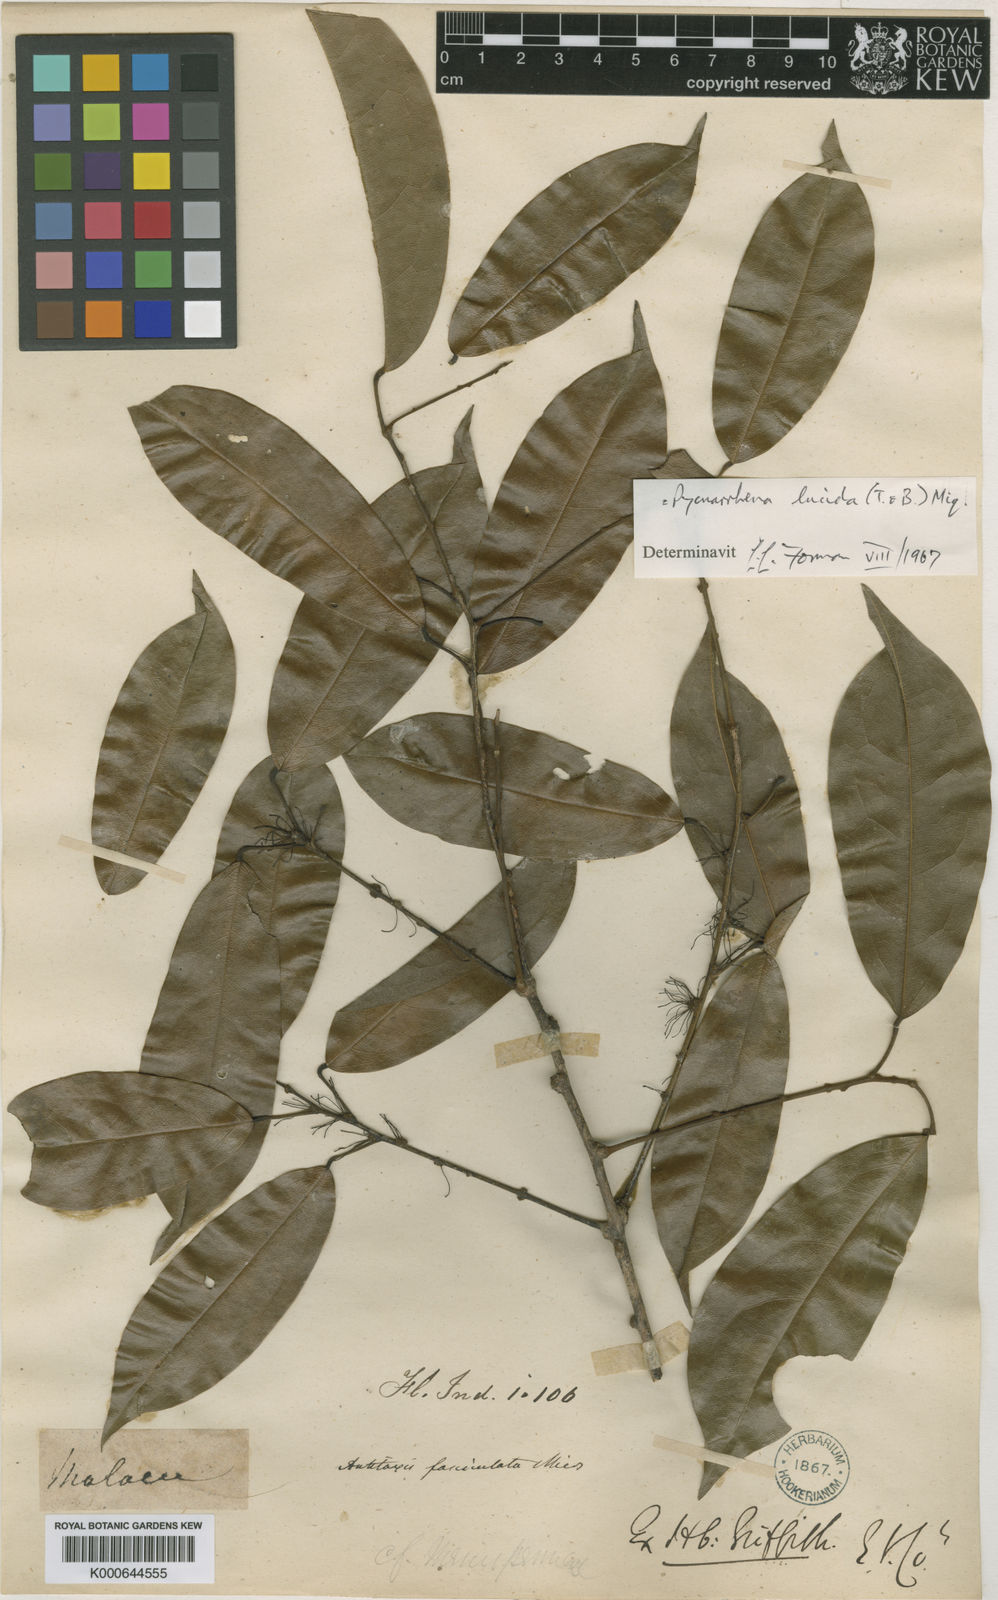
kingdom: Plantae
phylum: Tracheophyta
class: Magnoliopsida
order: Ranunculales
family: Menispermaceae
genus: Pycnarrhena
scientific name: Pycnarrhena lucida
